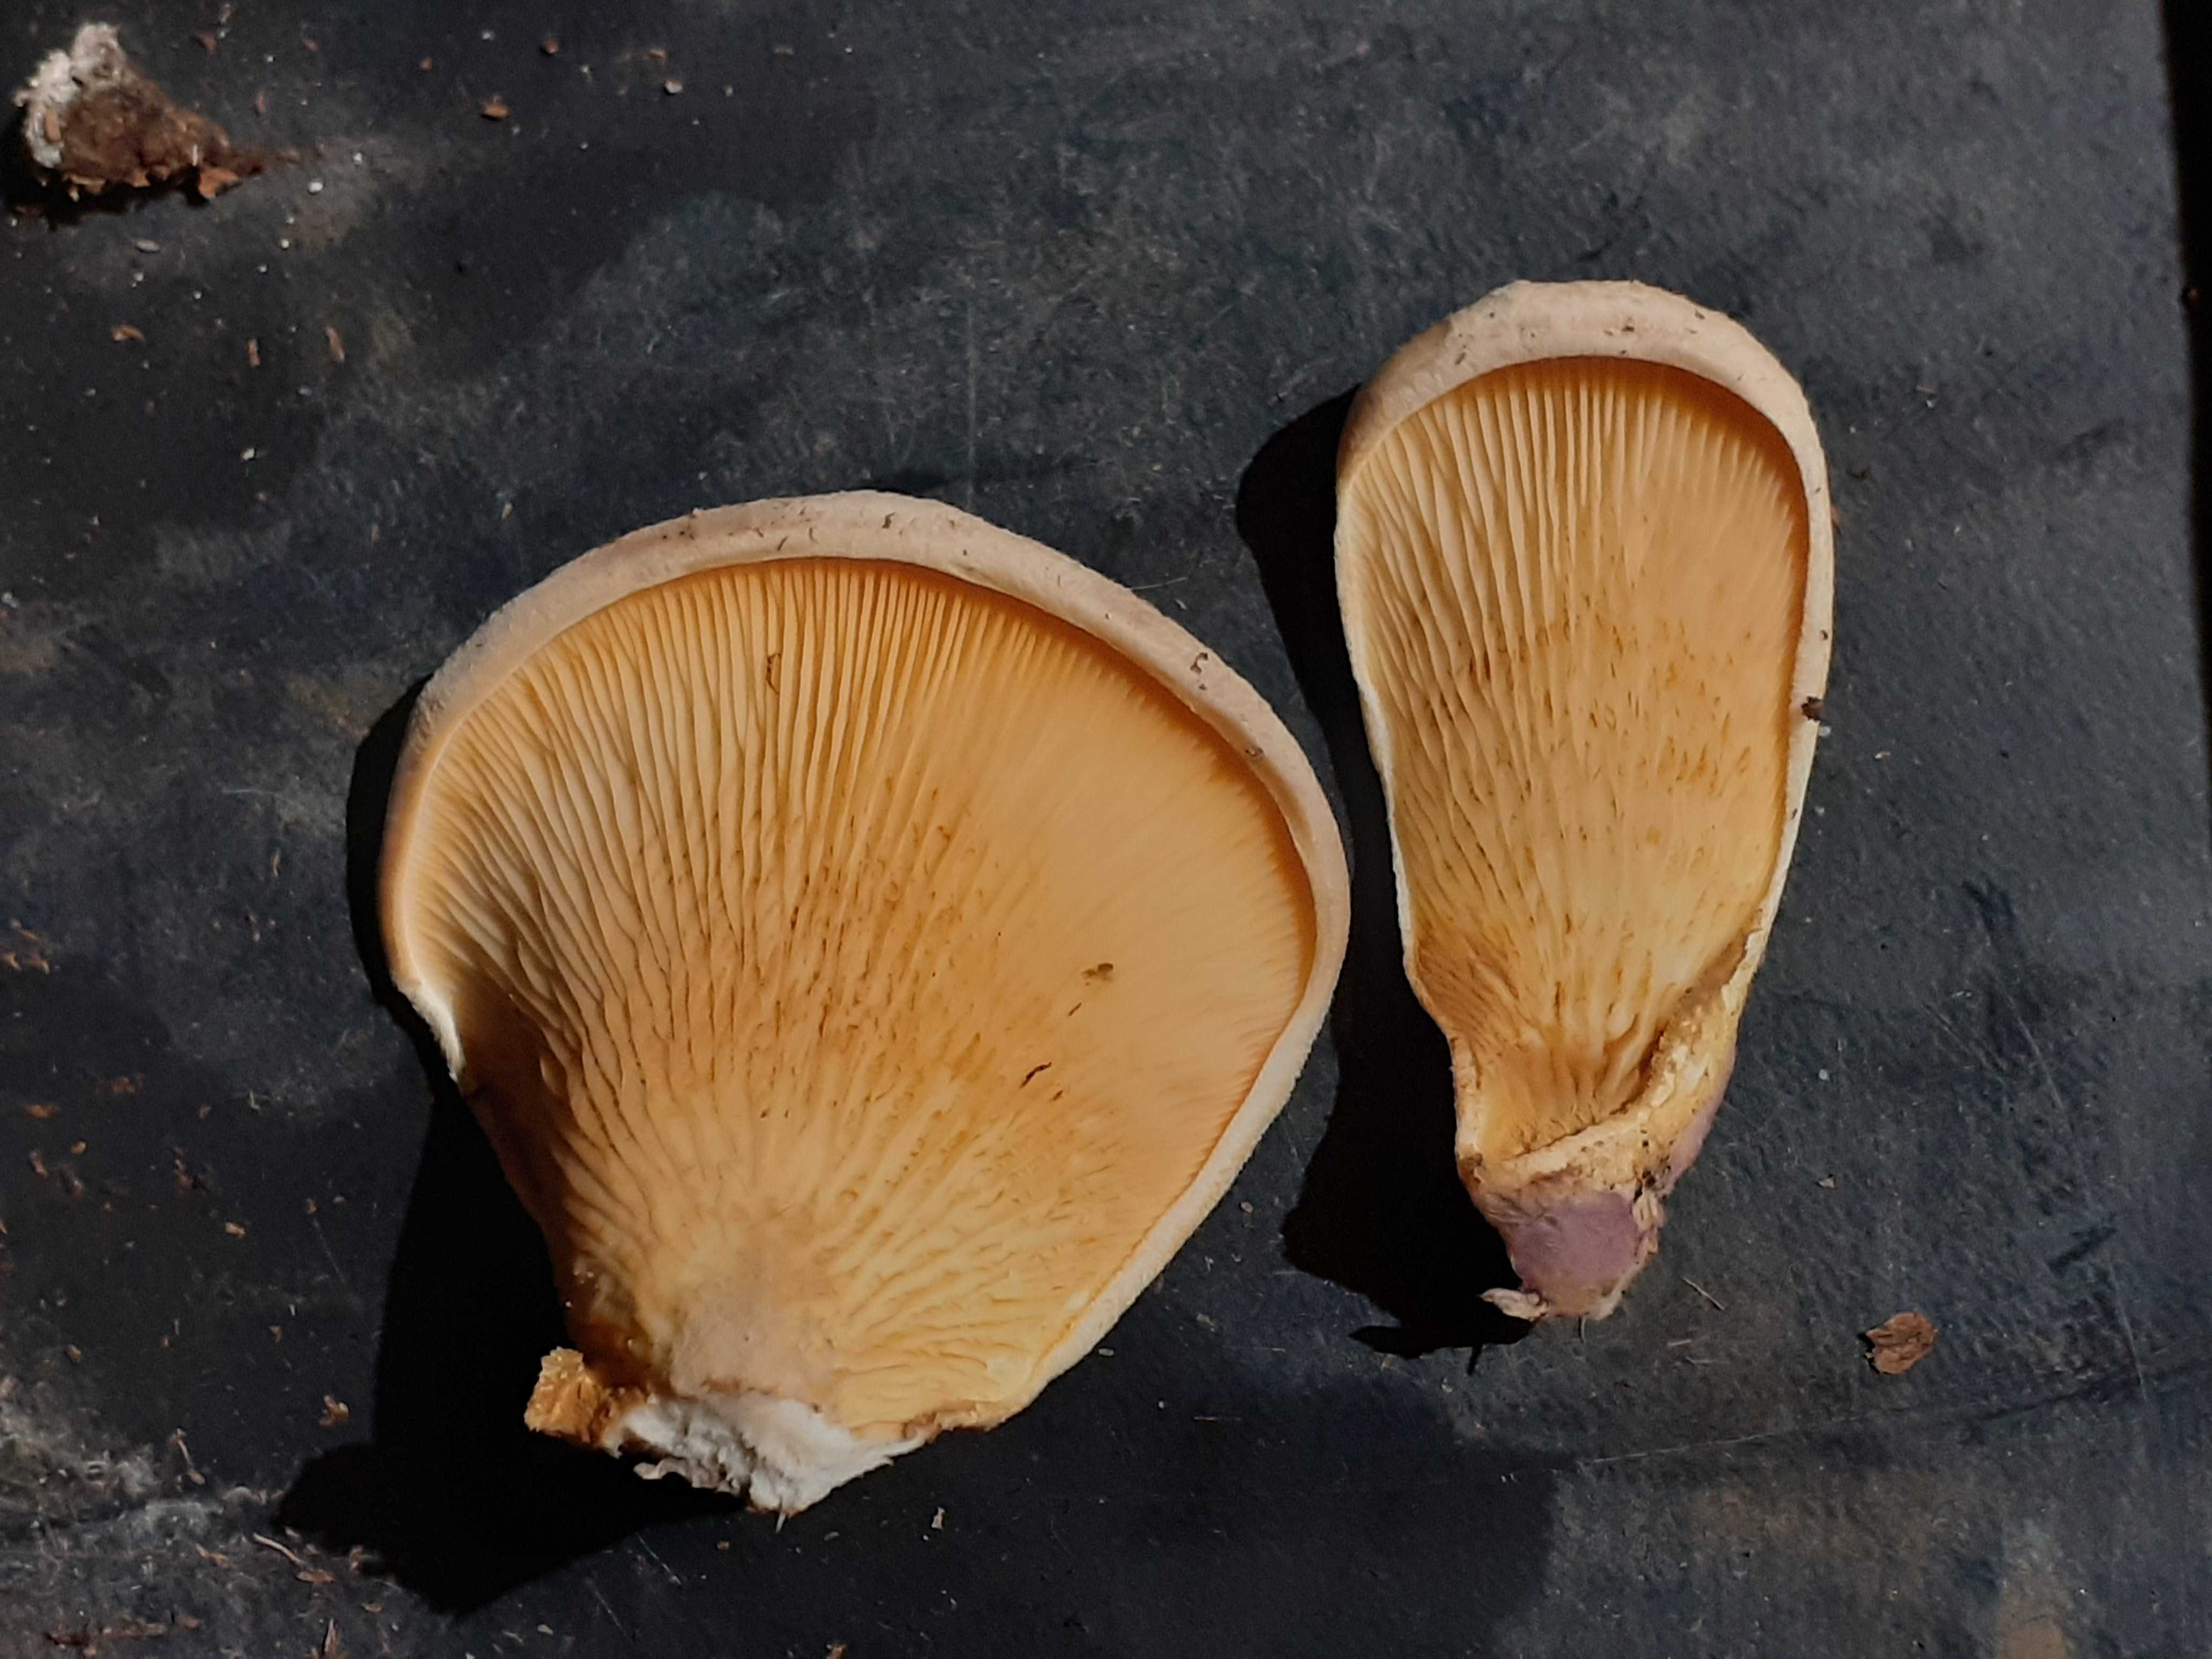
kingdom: Fungi
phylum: Basidiomycota
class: Agaricomycetes
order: Boletales
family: Tapinellaceae
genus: Tapinella
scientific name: Tapinella panuoides
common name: tømmer-viftesvamp
